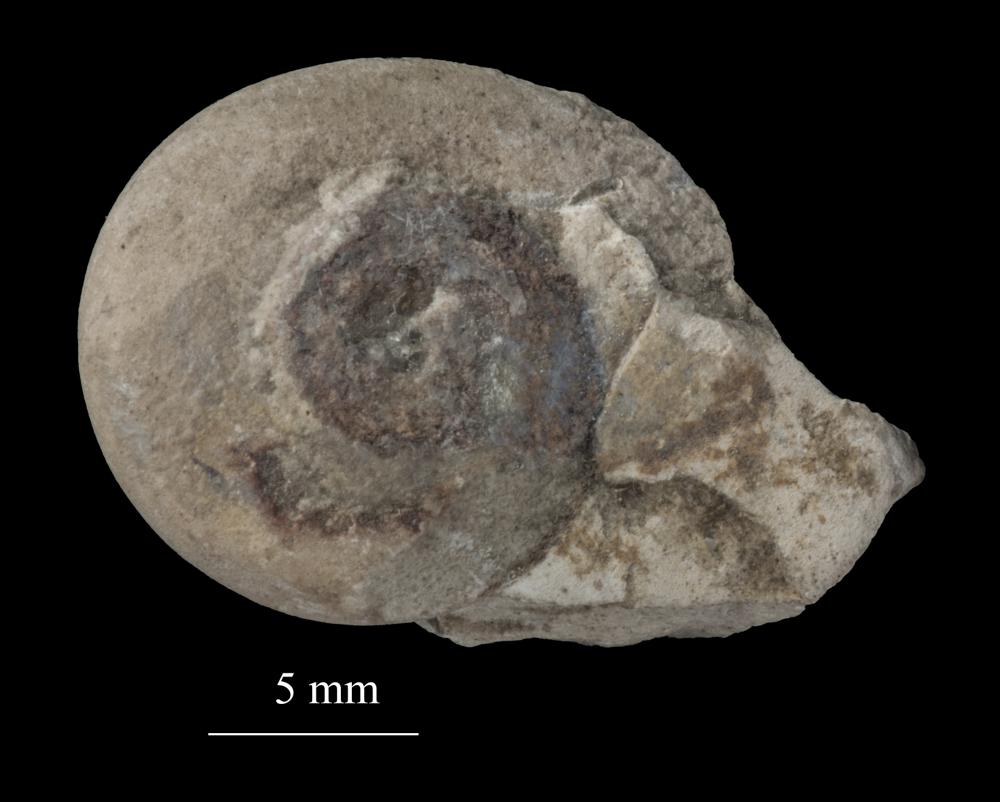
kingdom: Animalia
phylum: Mollusca
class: Gastropoda
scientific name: Gastropoda
